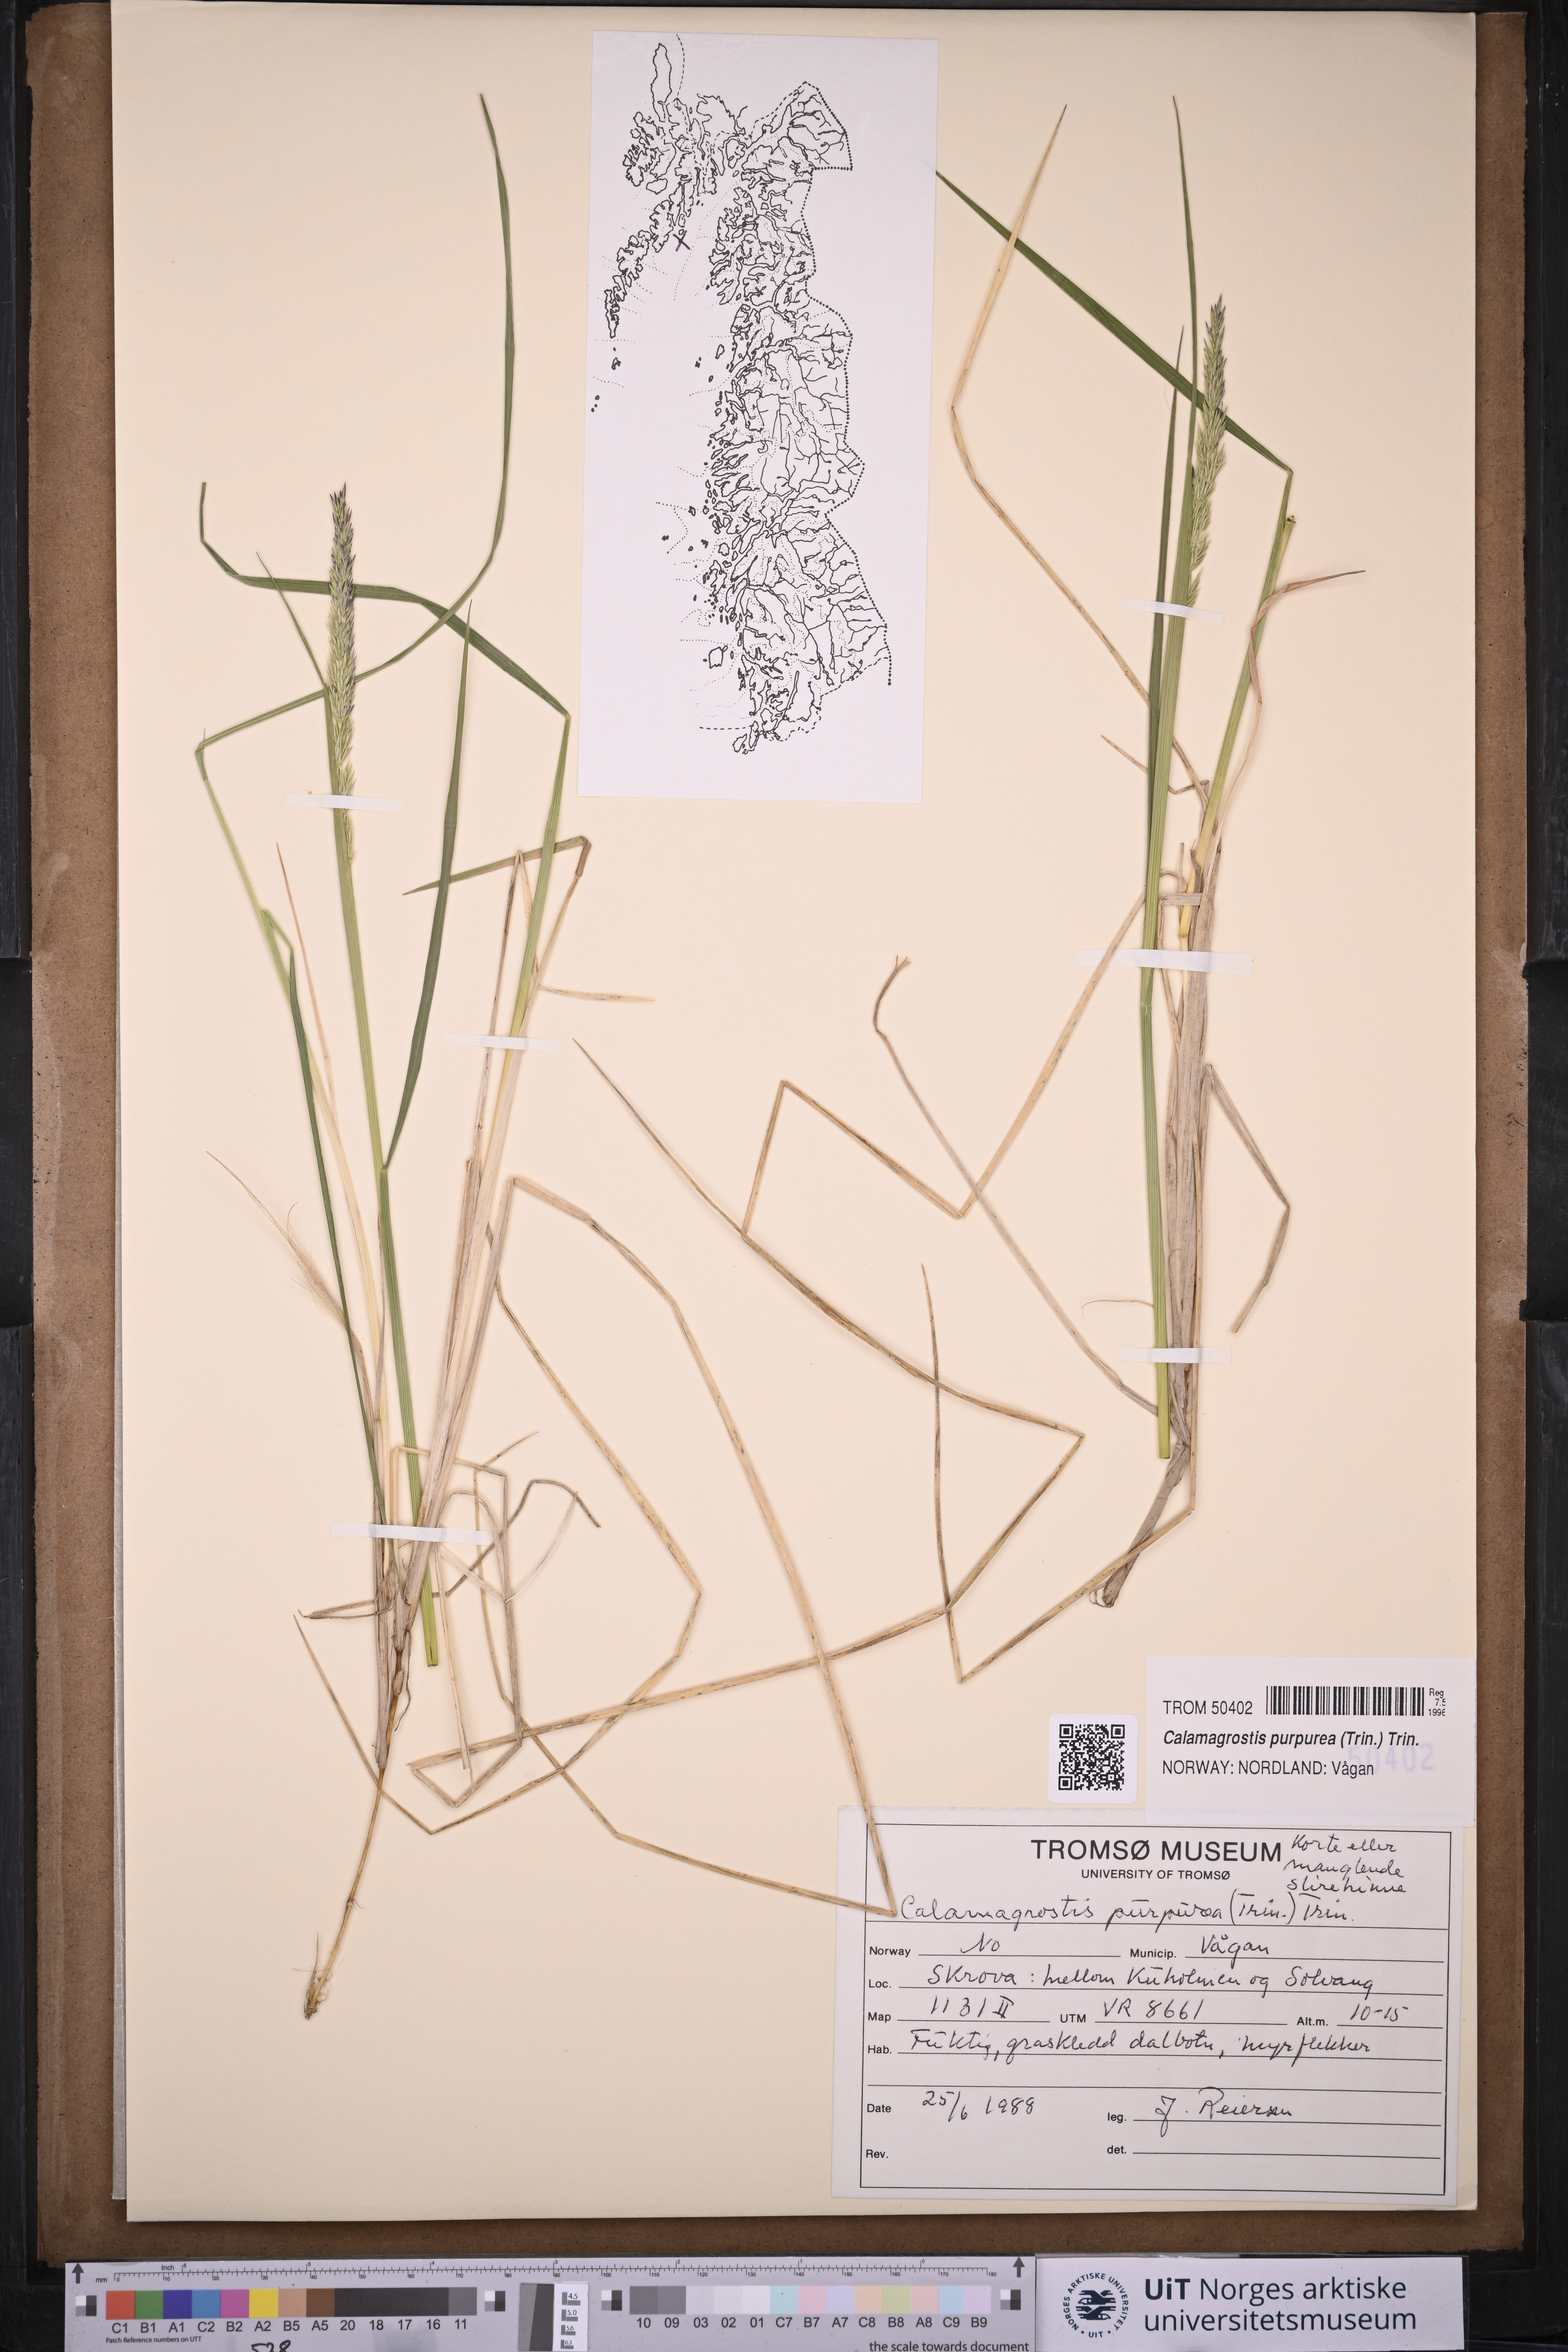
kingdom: Plantae
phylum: Tracheophyta
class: Liliopsida
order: Poales
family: Poaceae
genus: Calamagrostis
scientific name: Calamagrostis purpurea
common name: Scandinavian small-reed
